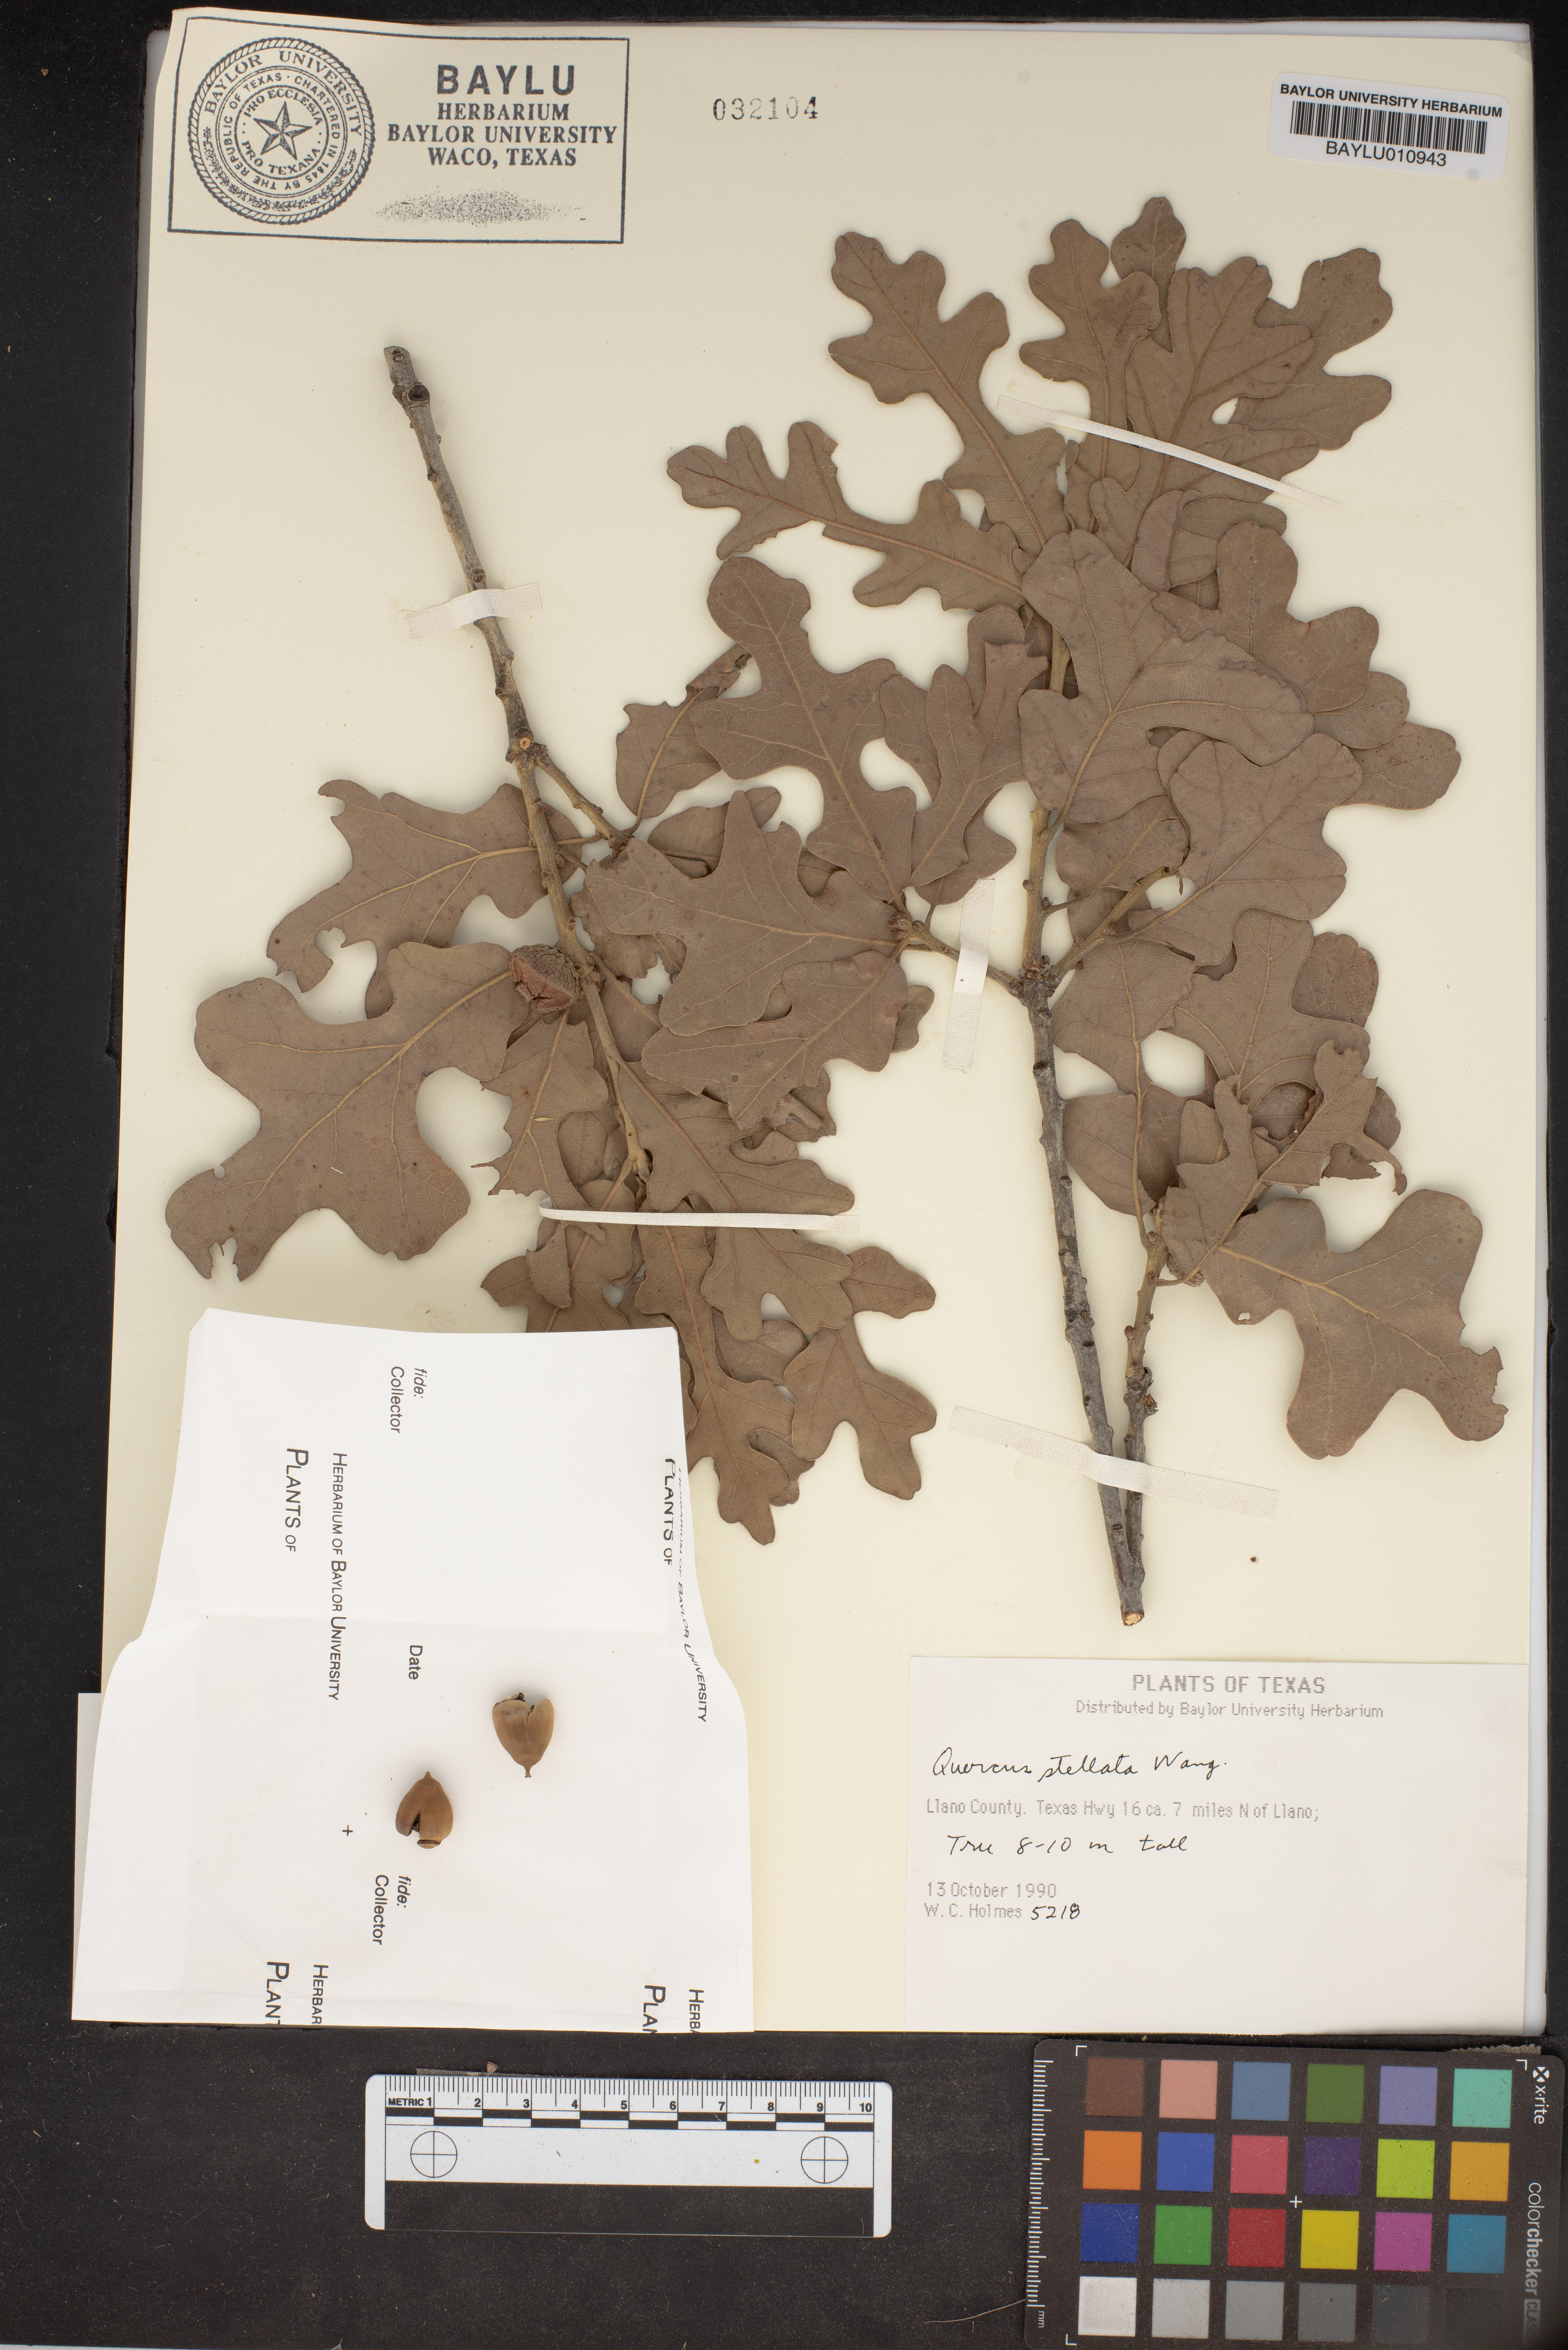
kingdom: Plantae
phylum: Tracheophyta
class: Magnoliopsida
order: Fagales
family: Fagaceae
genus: Quercus
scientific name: Quercus stellata
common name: Post oak
